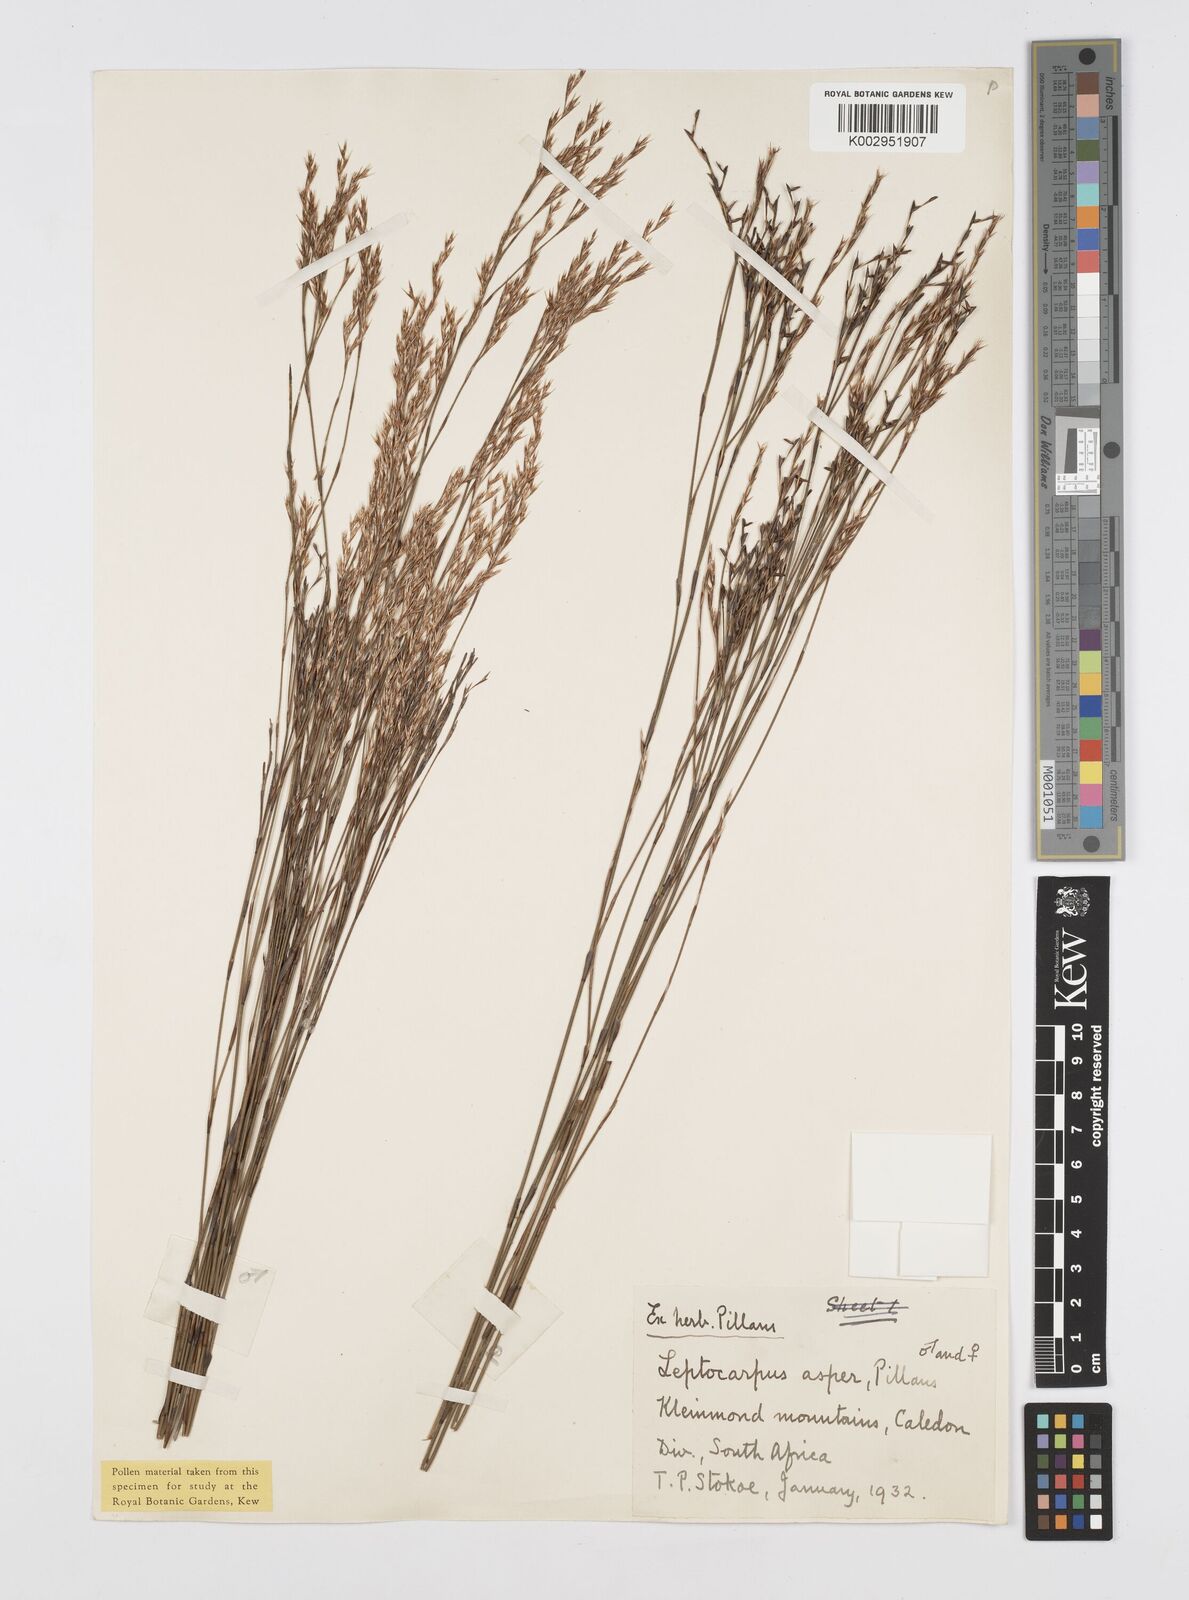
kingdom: Plantae
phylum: Tracheophyta
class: Liliopsida
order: Poales
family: Restionaceae
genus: Restio
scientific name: Restio asperus
